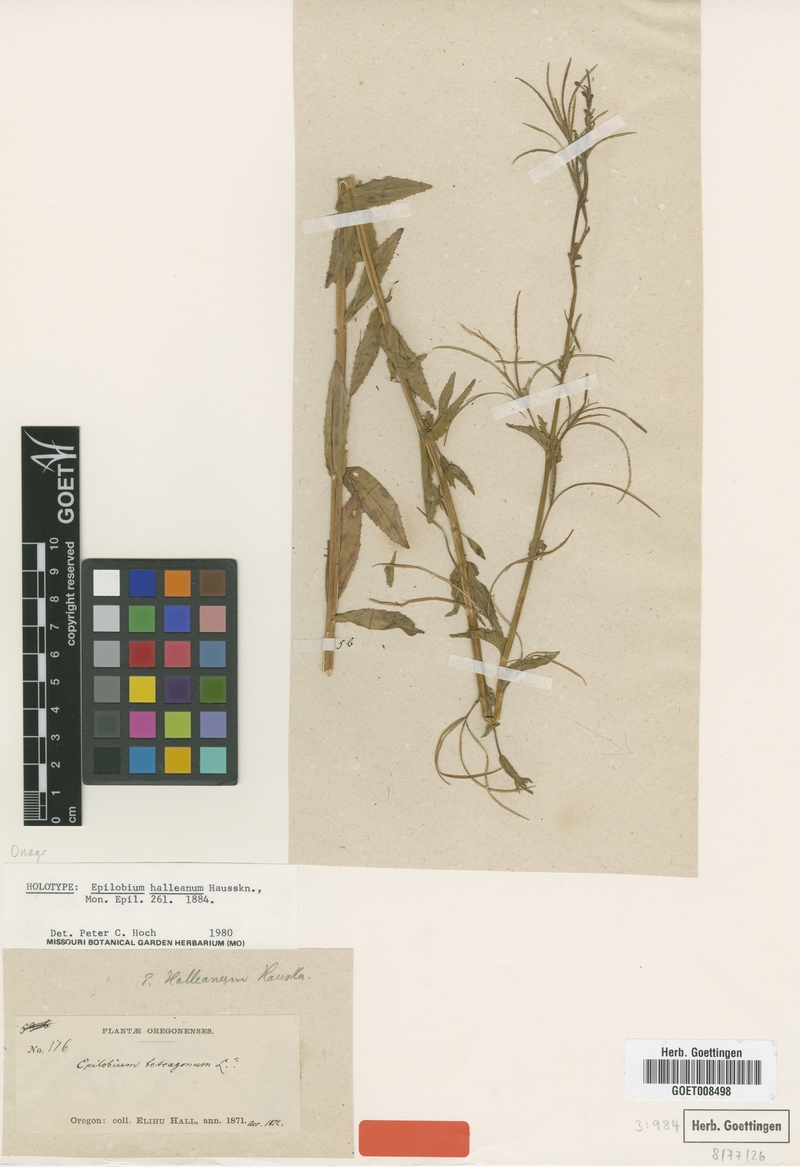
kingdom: Plantae
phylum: Tracheophyta
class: Magnoliopsida
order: Myrtales
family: Onagraceae
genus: Epilobium
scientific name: Epilobium halleanum
